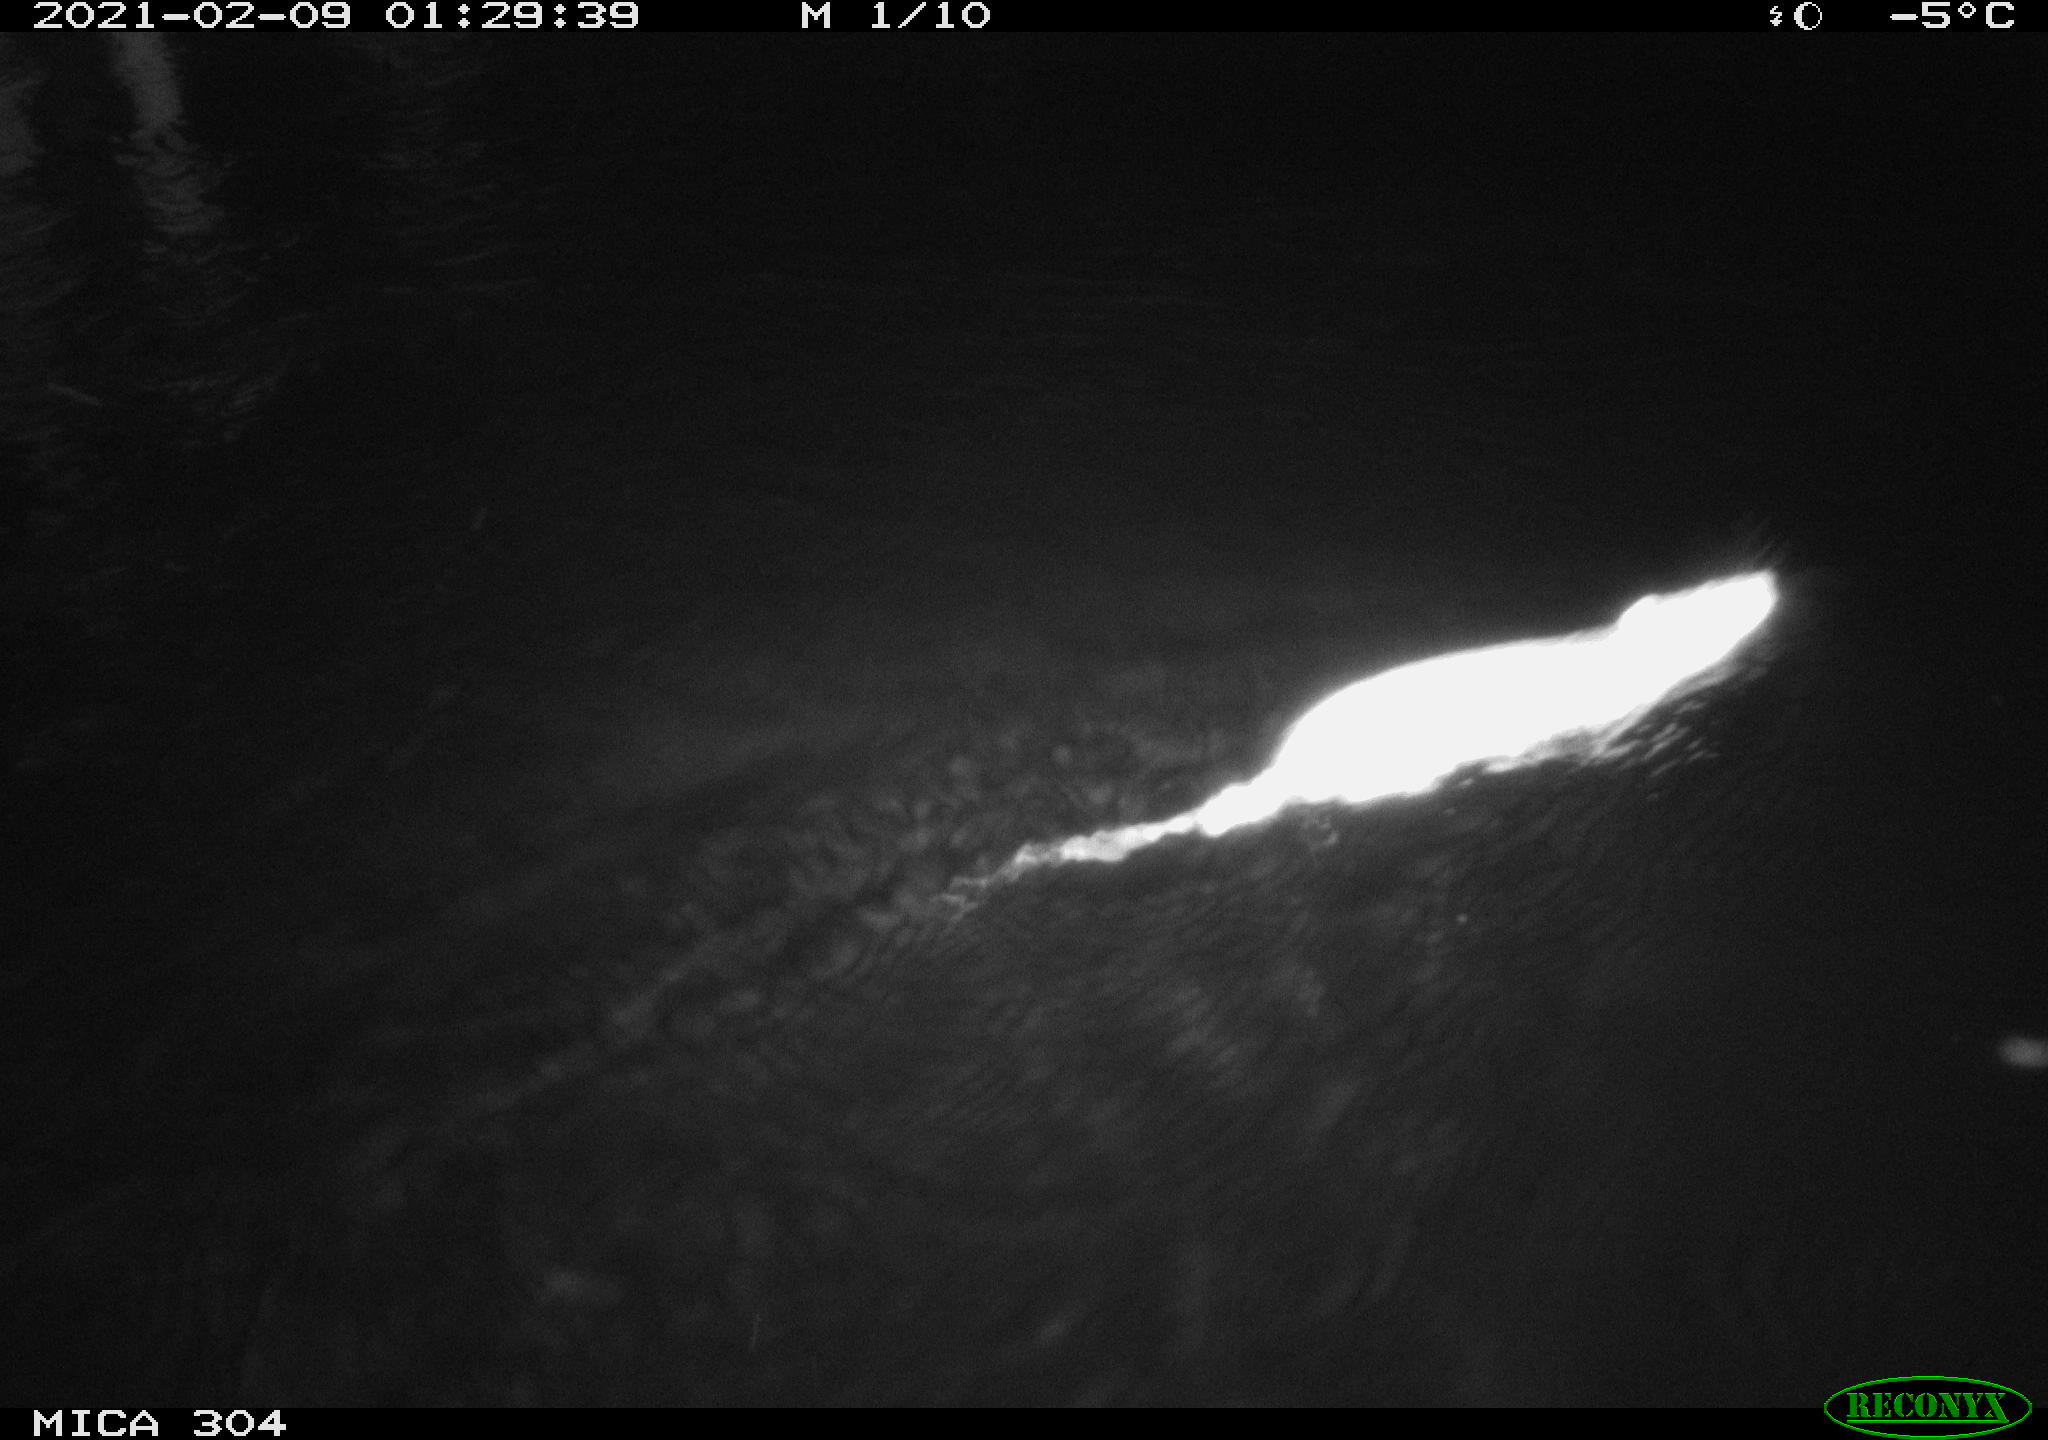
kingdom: Animalia
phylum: Chordata
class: Mammalia
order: Rodentia
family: Muridae
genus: Rattus
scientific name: Rattus norvegicus
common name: Brown rat
